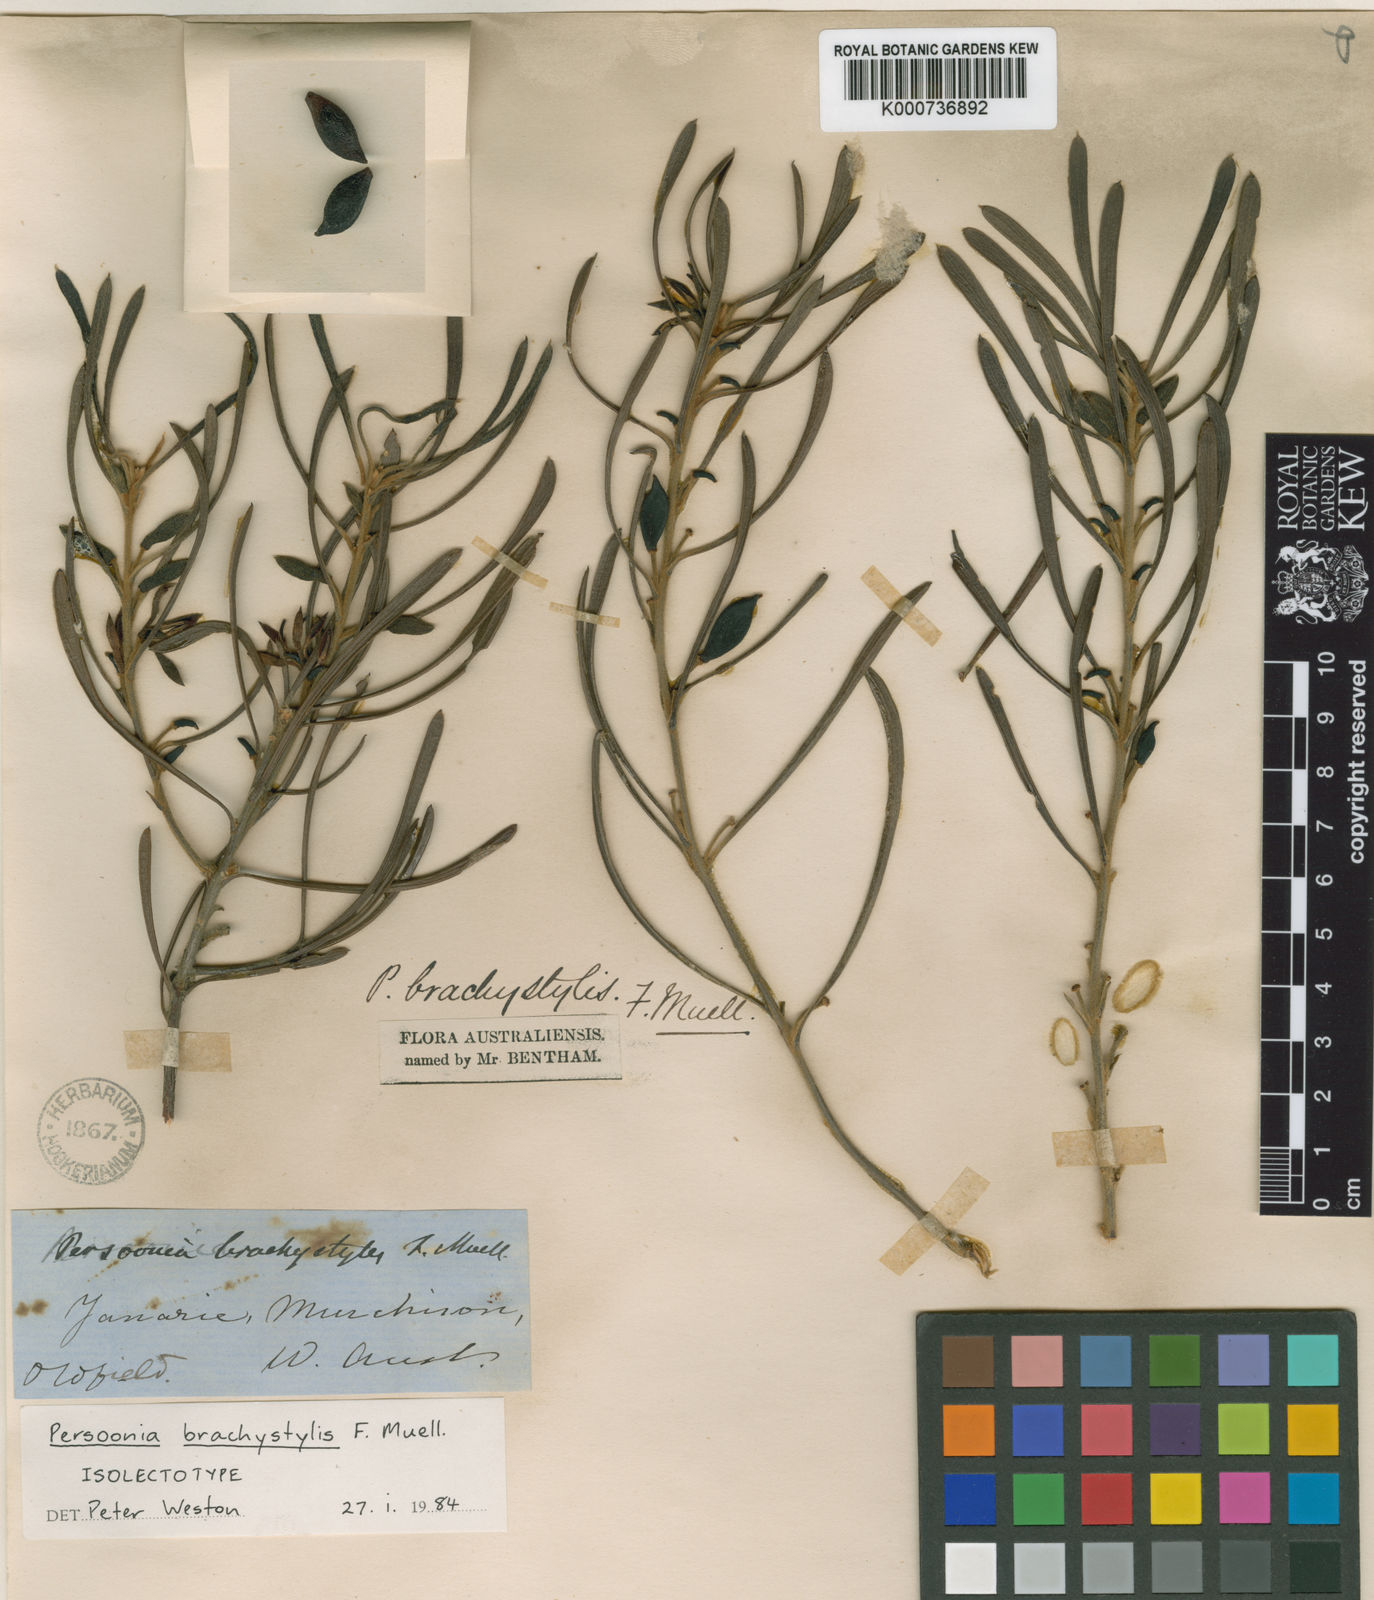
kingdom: Plantae
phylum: Tracheophyta
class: Magnoliopsida
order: Proteales
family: Proteaceae
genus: Persoonia
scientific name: Persoonia brachystylis
